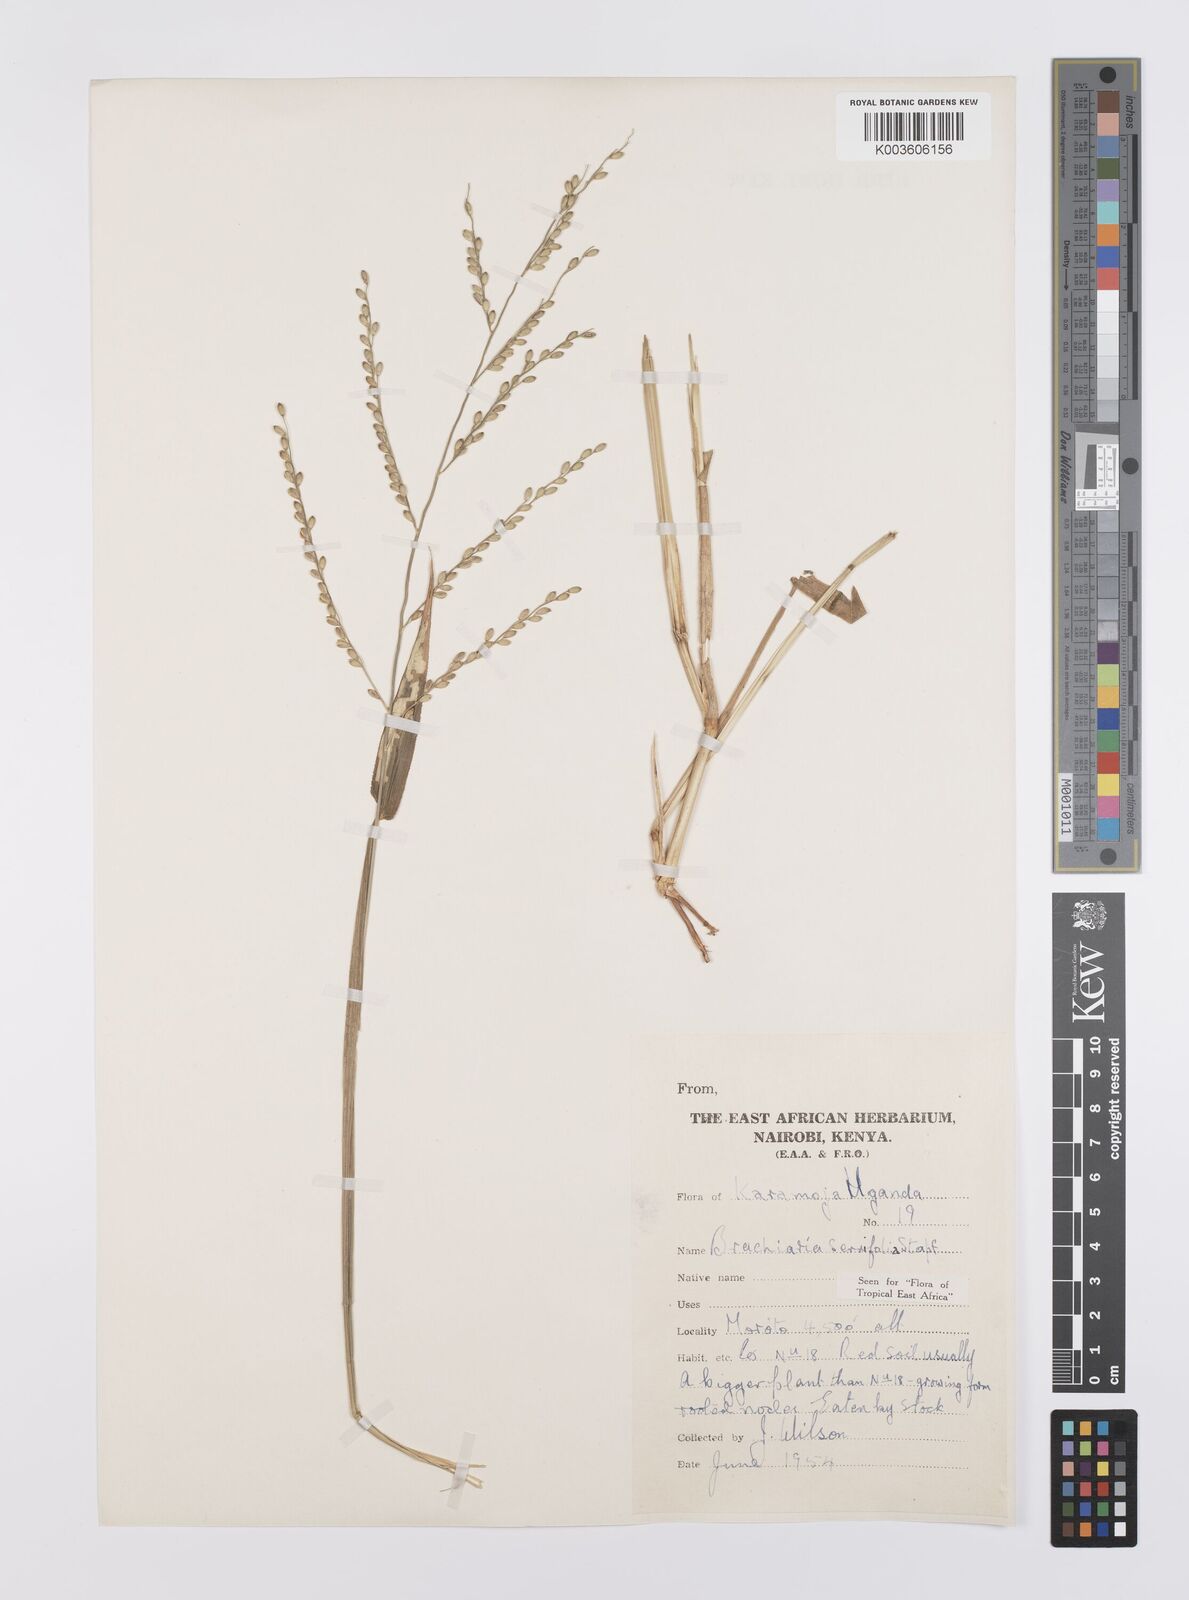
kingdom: Plantae
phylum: Tracheophyta
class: Liliopsida
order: Poales
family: Poaceae
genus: Urochloa
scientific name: Urochloa serrifolia
